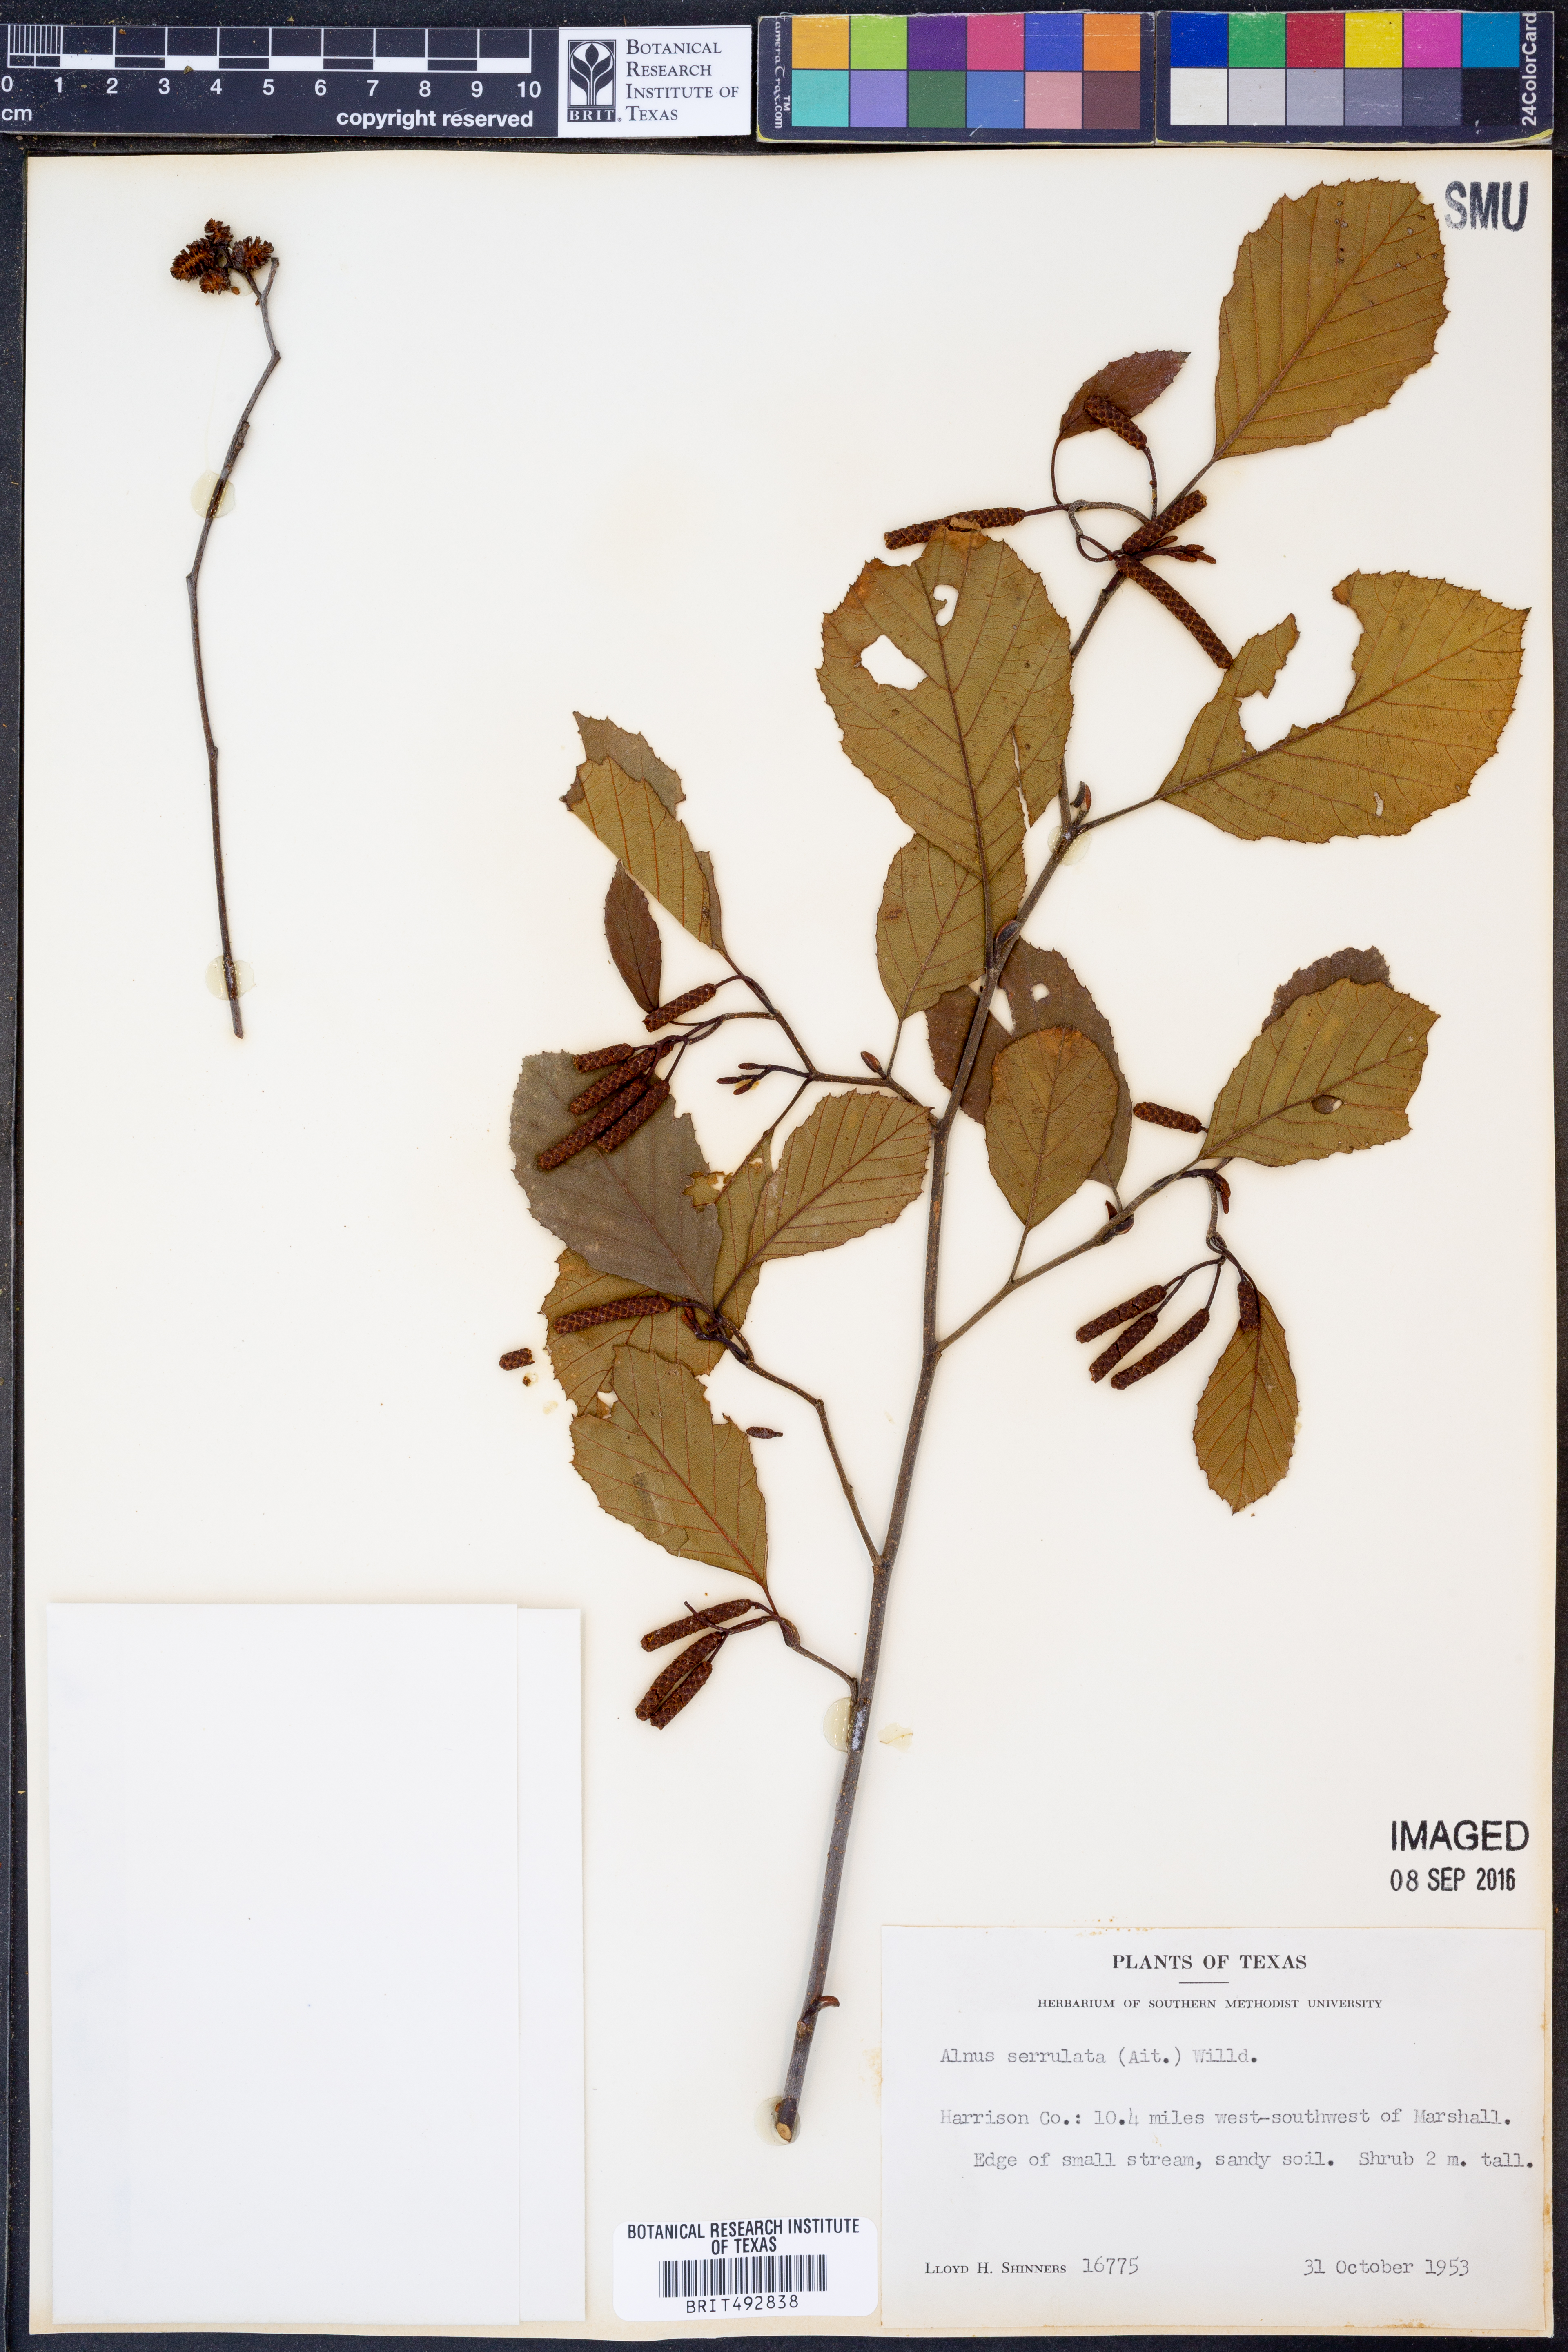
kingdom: Plantae
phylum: Tracheophyta
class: Magnoliopsida
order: Fagales
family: Betulaceae
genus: Alnus
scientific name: Alnus serrulata
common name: Hazel alder
